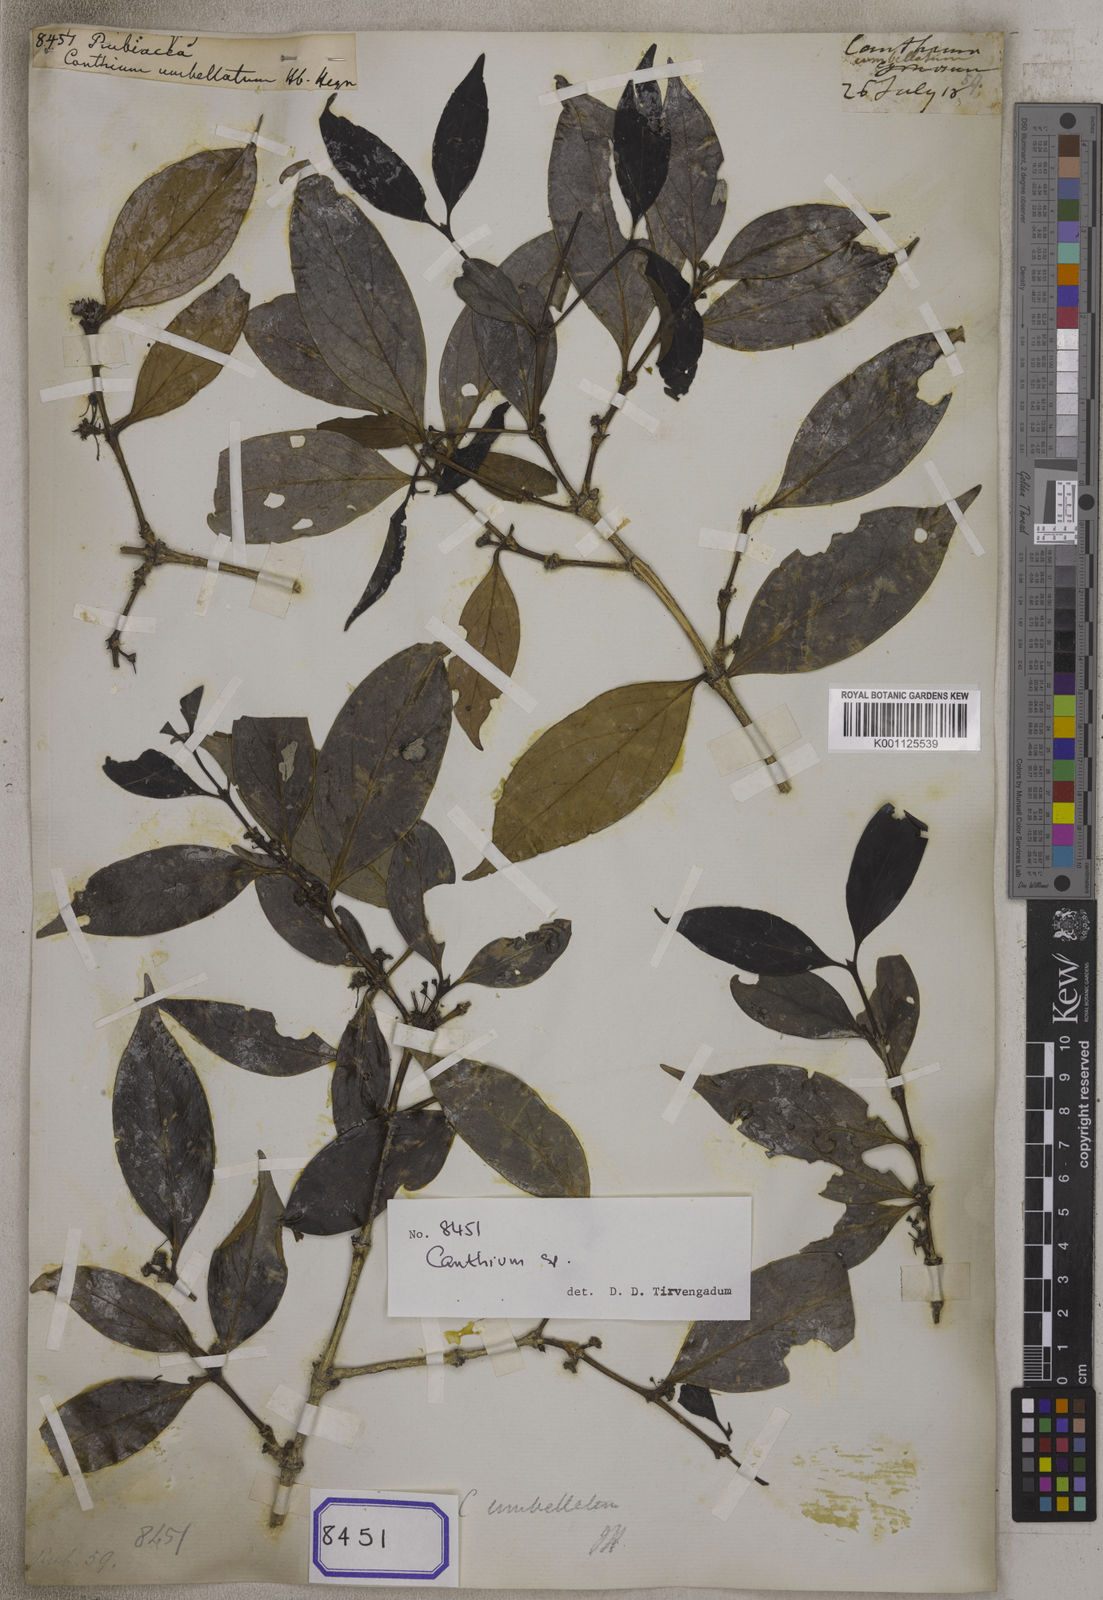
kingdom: Plantae
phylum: Tracheophyta
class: Magnoliopsida
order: Gentianales
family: Rubiaceae
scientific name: Rubiaceae
